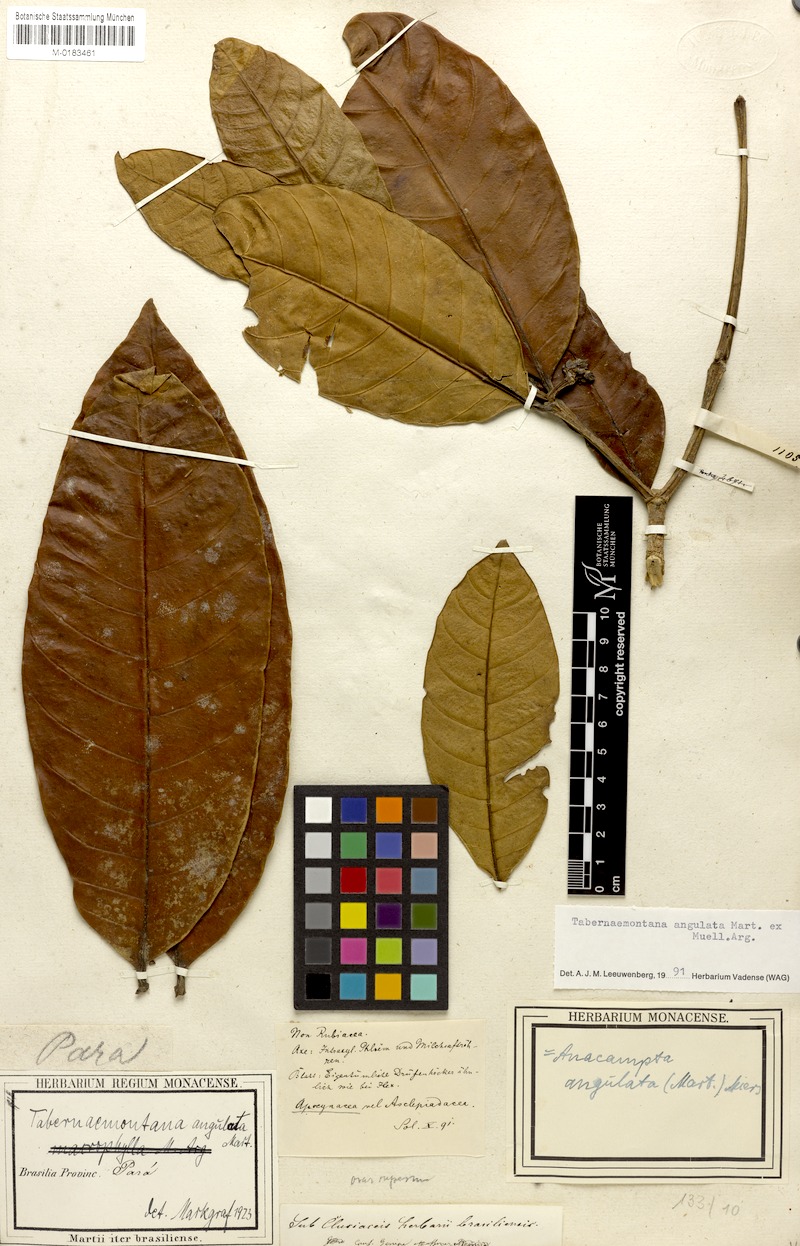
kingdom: Plantae
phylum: Tracheophyta
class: Magnoliopsida
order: Gentianales
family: Apocynaceae
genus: Tabernaemontana
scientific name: Tabernaemontana angulata
